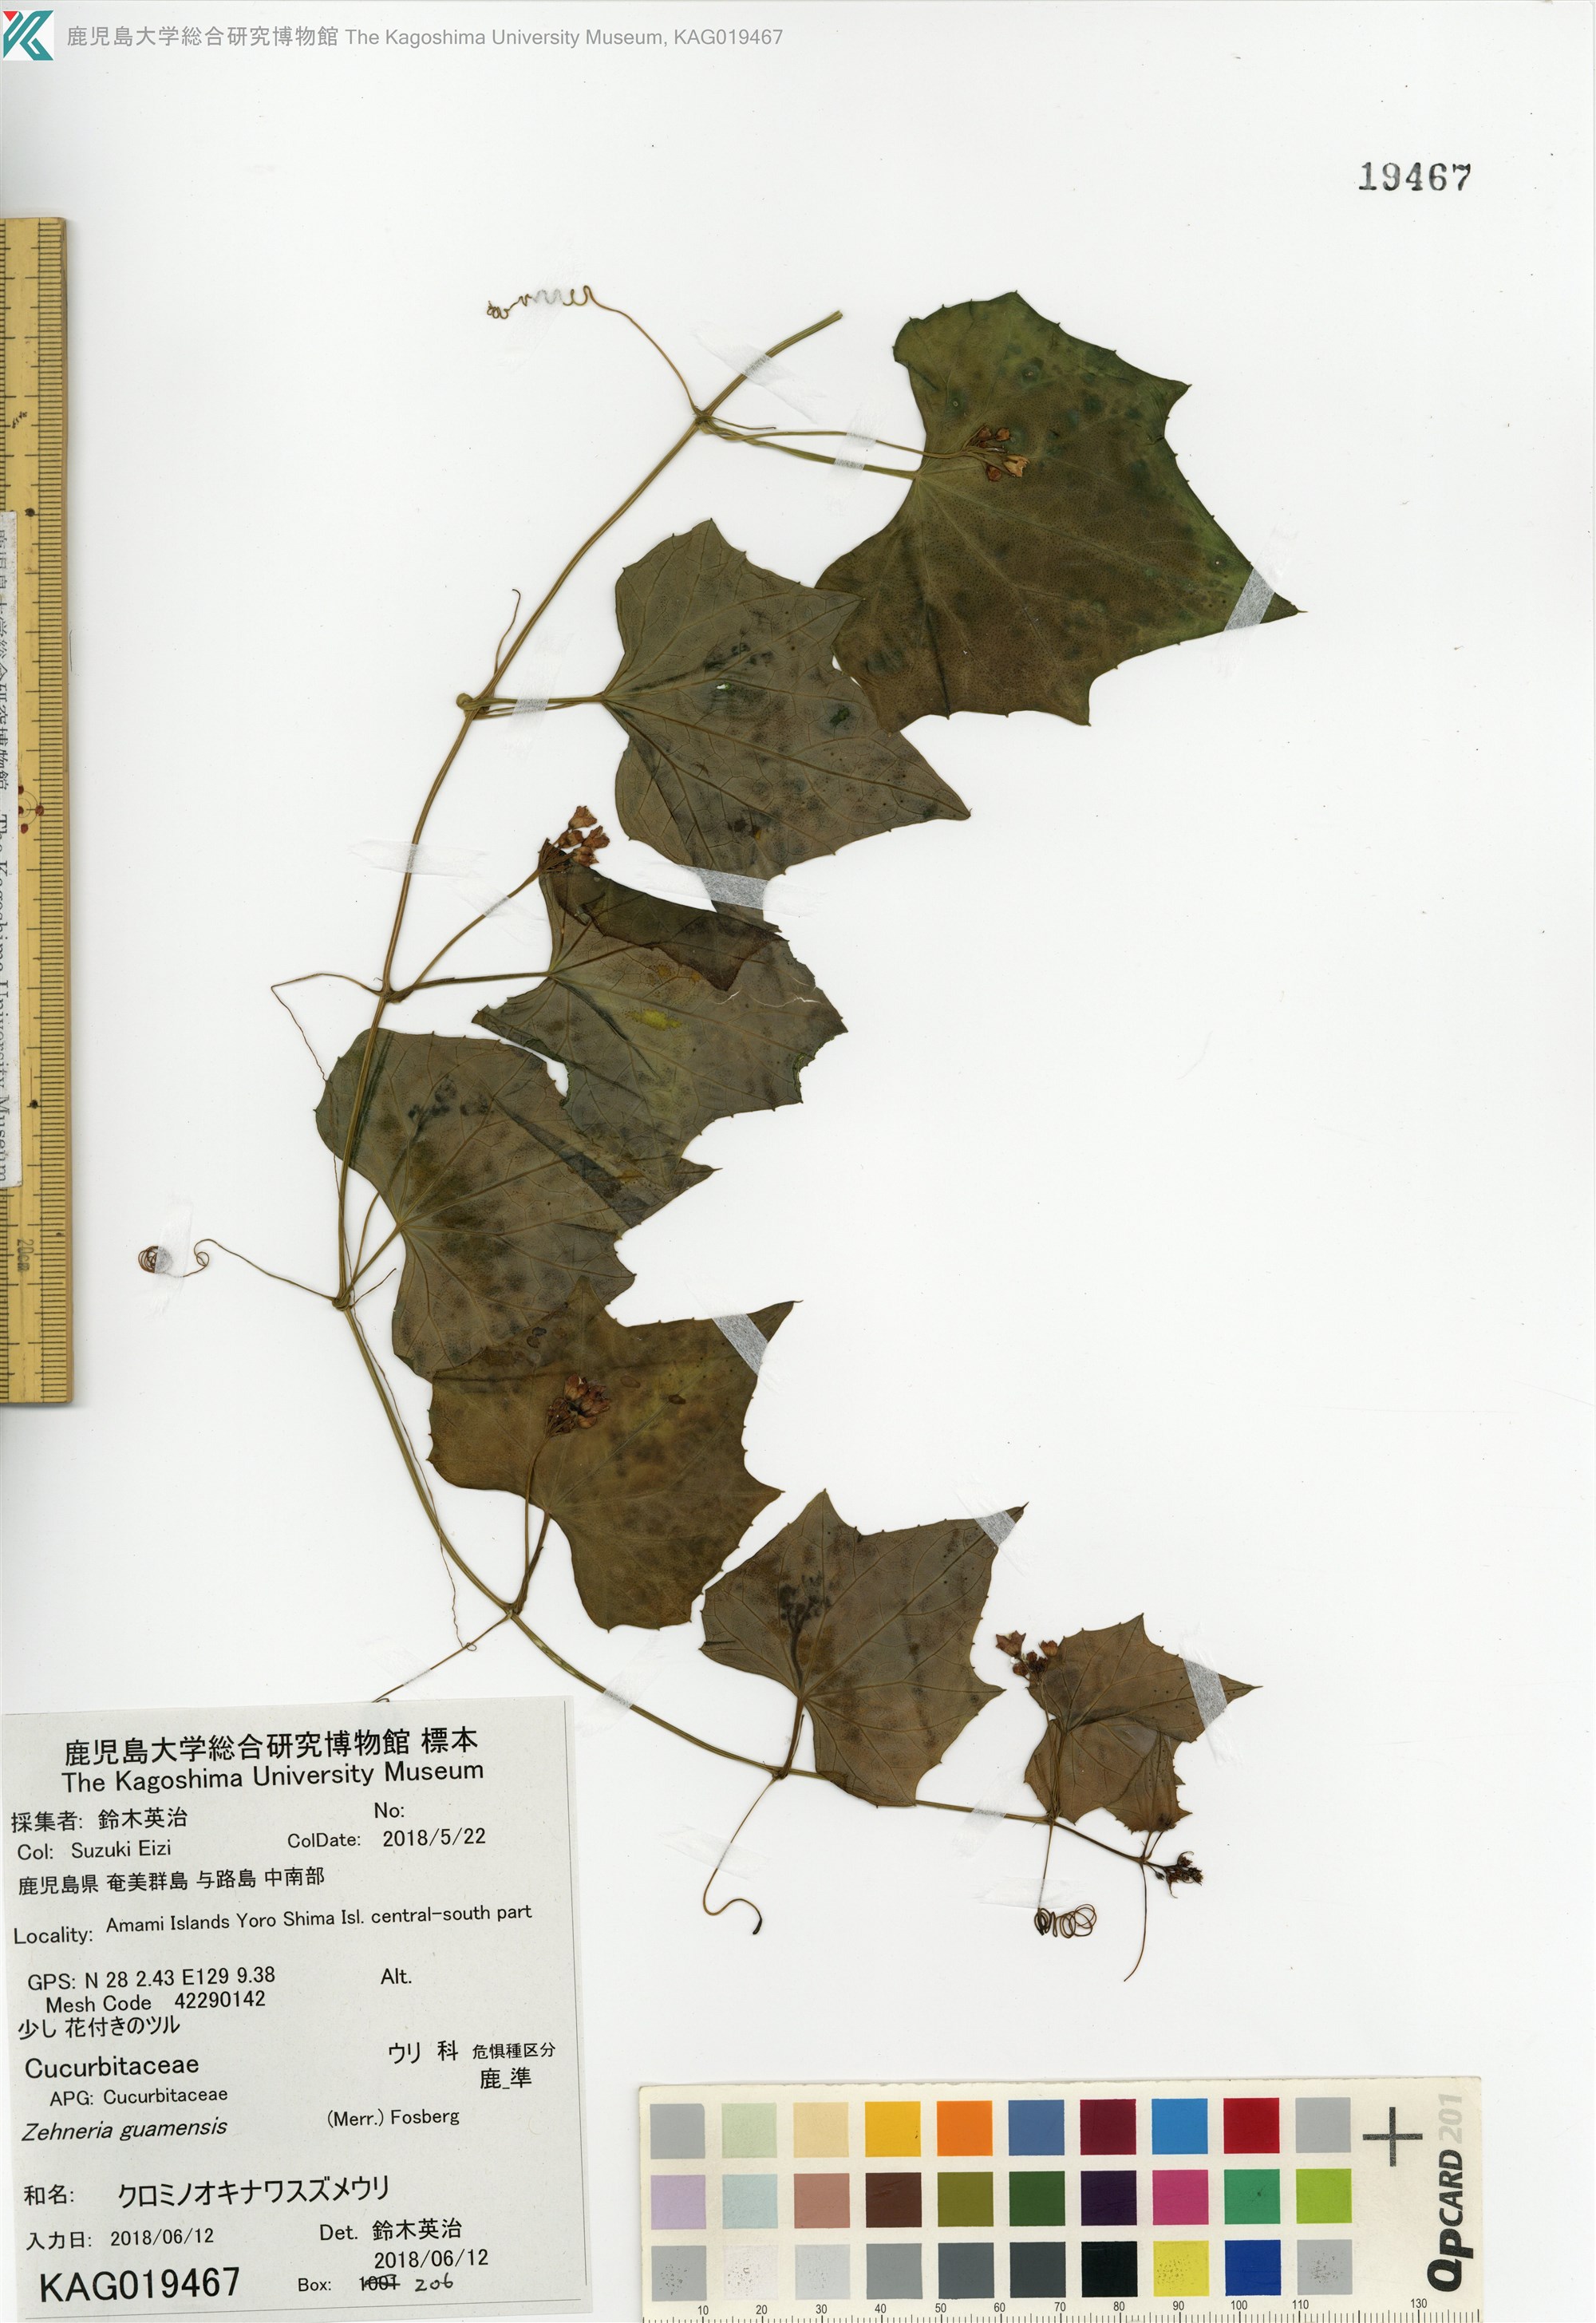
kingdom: Plantae
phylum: Tracheophyta
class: Magnoliopsida
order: Cucurbitales
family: Cucurbitaceae
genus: Zehneria
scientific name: Zehneria guamensis
